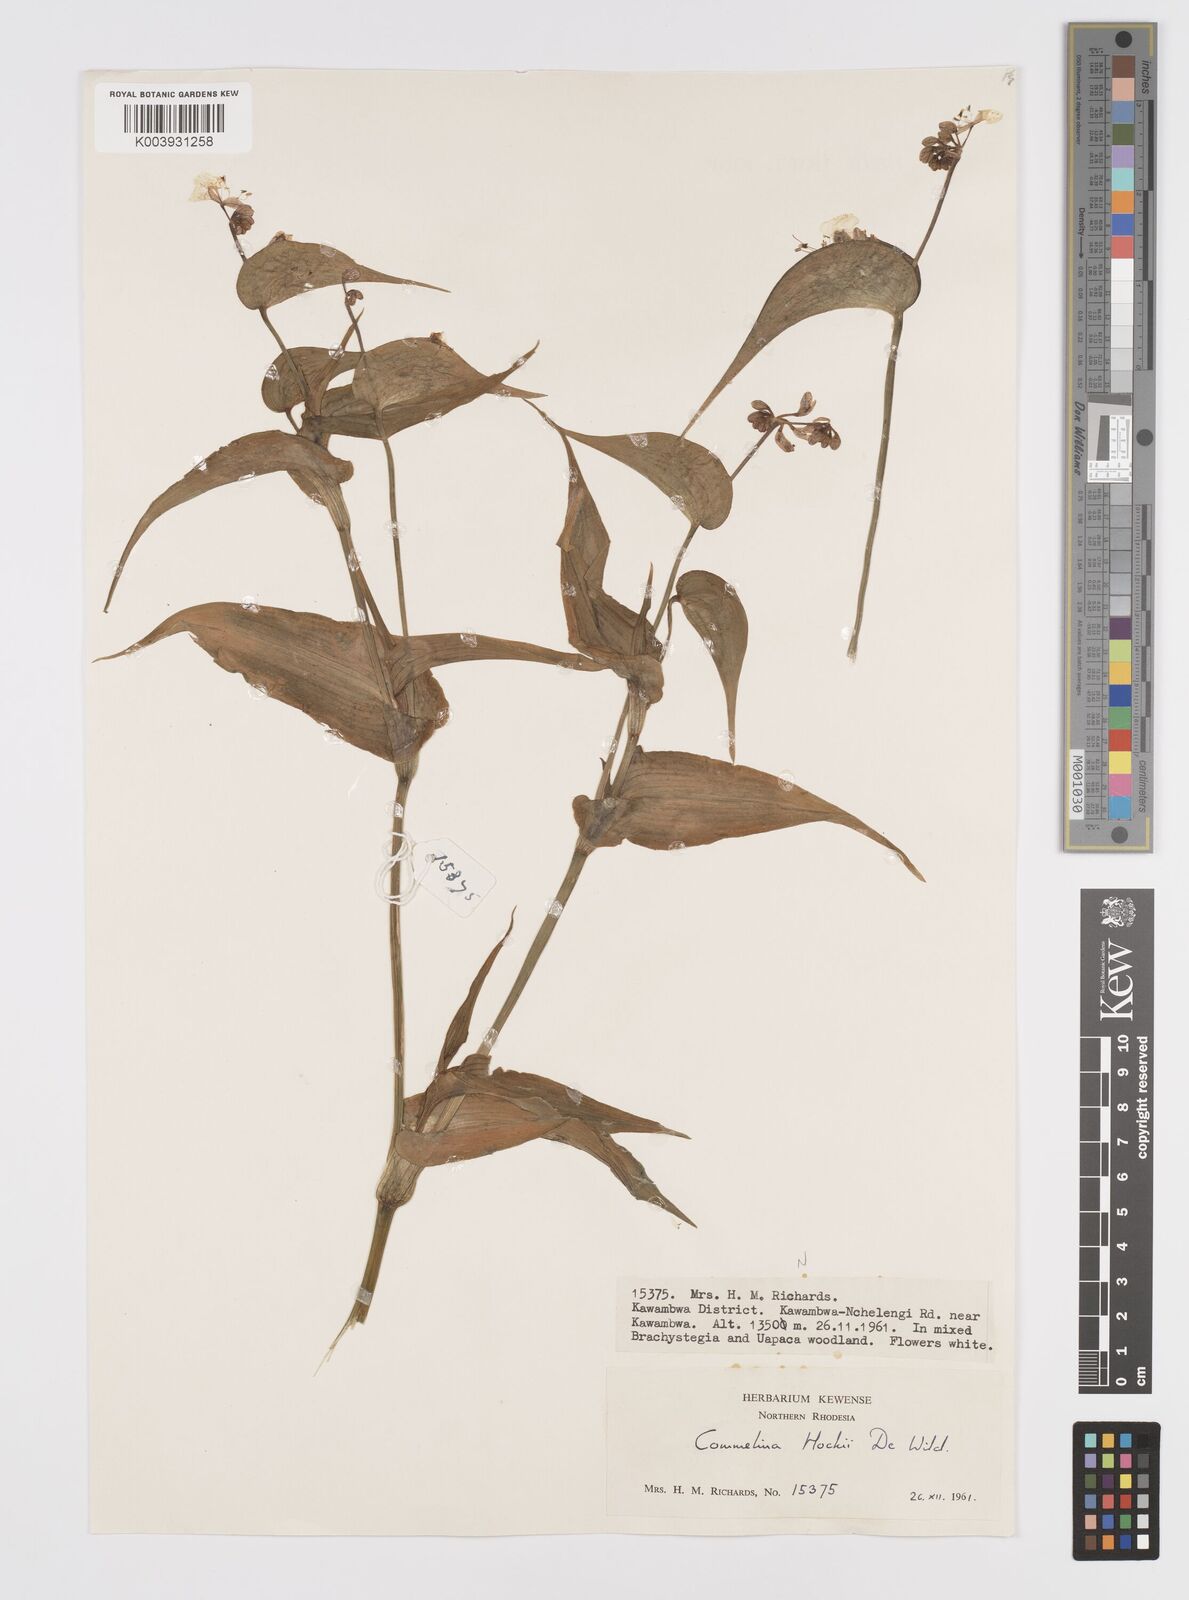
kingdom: Plantae
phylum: Tracheophyta
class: Liliopsida
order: Commelinales
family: Commelinaceae
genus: Commelina
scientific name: Commelina hockii
